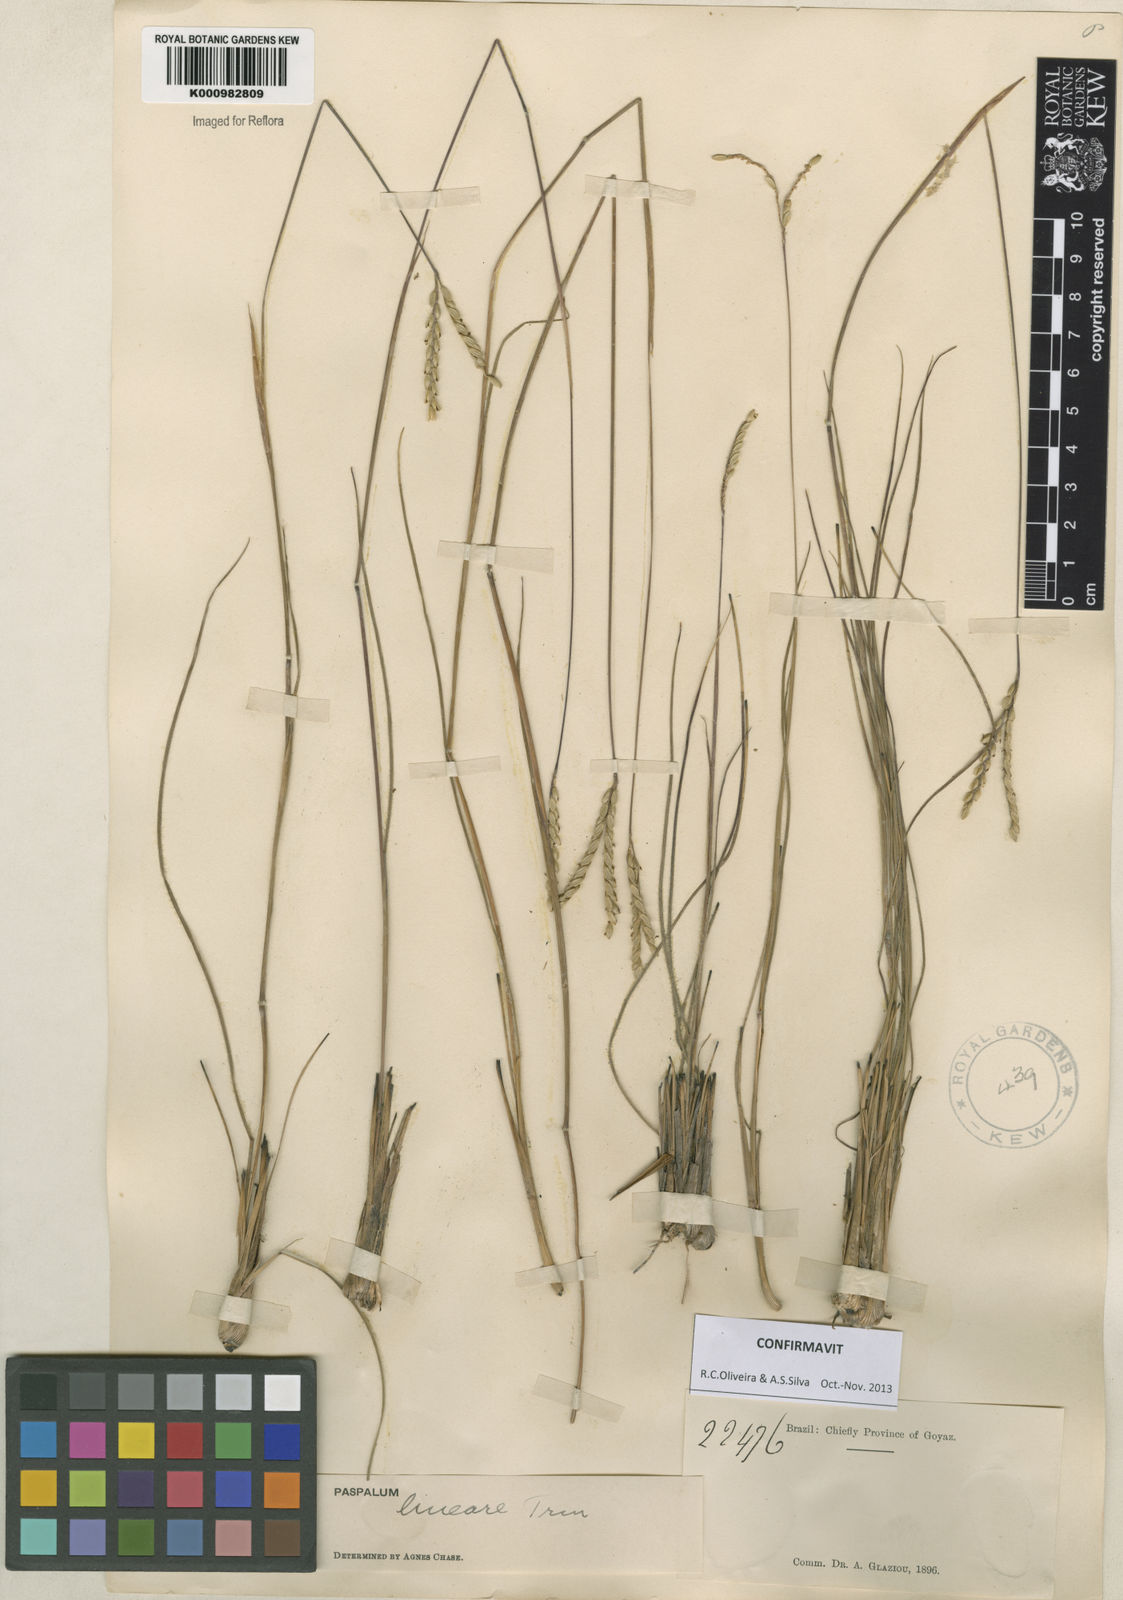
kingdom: Plantae
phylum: Tracheophyta
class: Liliopsida
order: Poales
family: Poaceae
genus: Paspalum
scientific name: Paspalum lineare
